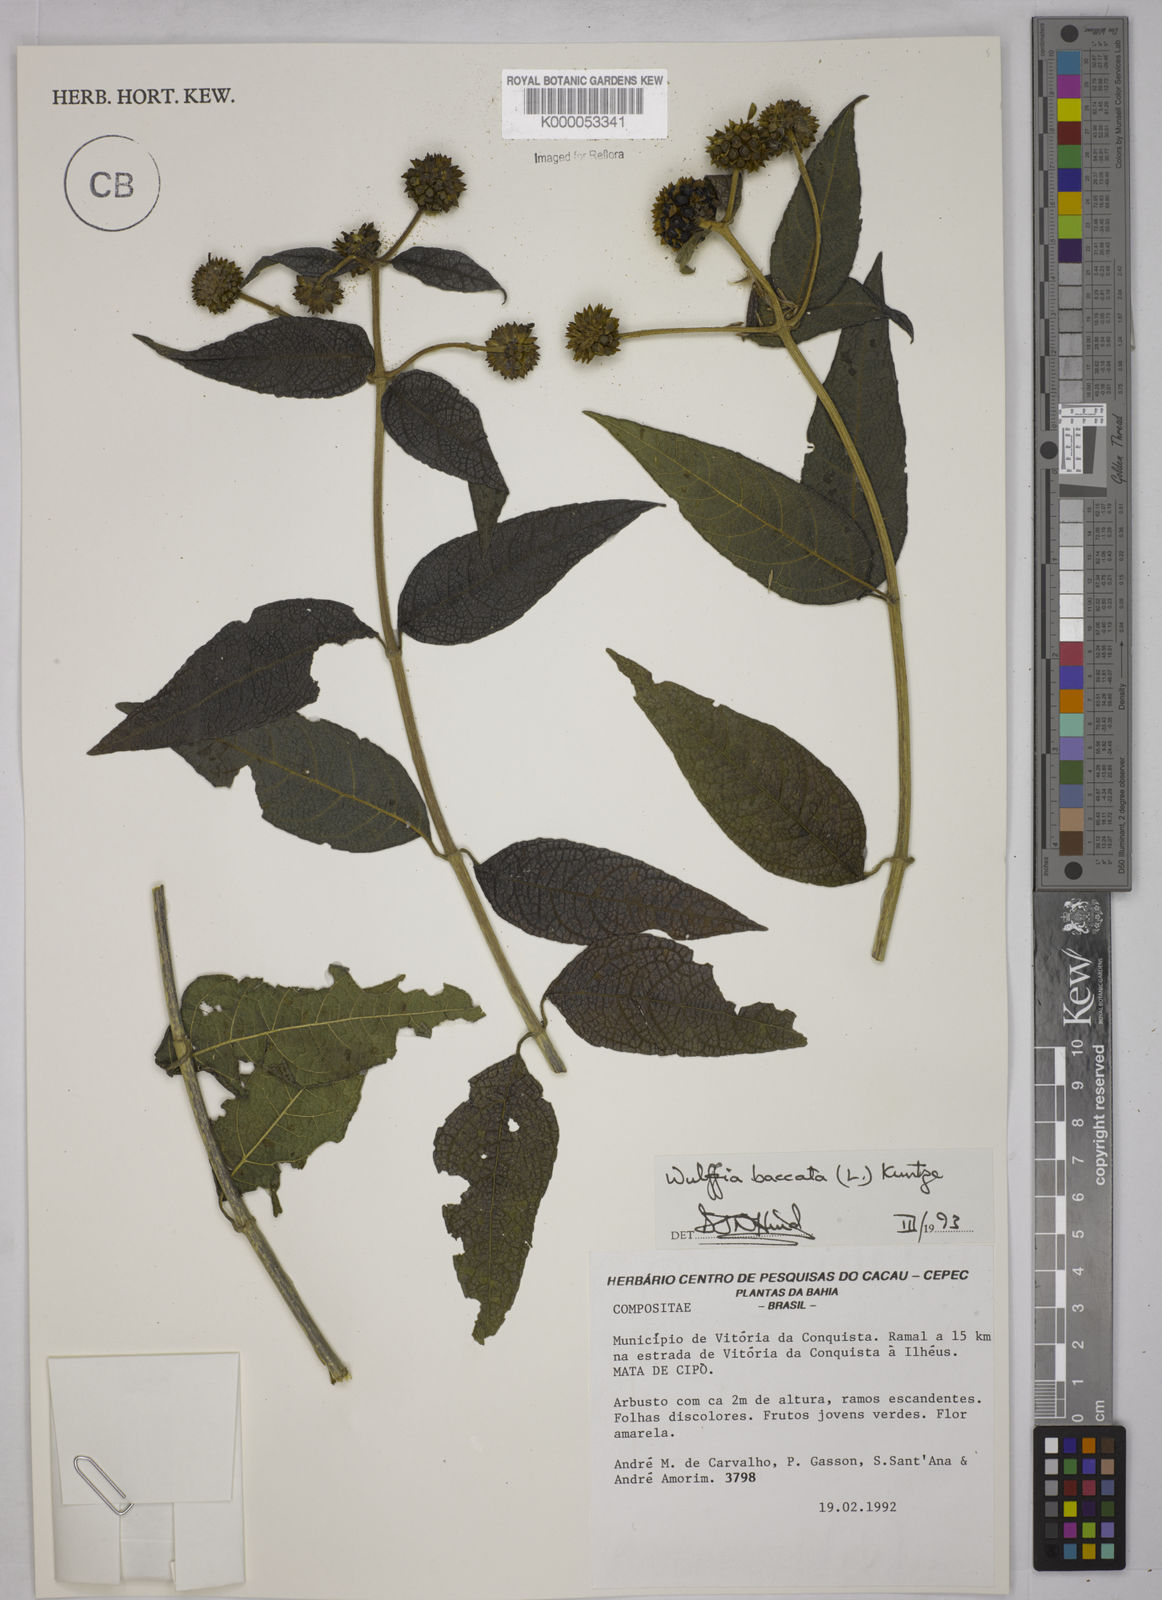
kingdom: Plantae
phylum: Tracheophyta
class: Magnoliopsida
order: Asterales
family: Asteraceae
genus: Tilesia
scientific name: Tilesia baccata
